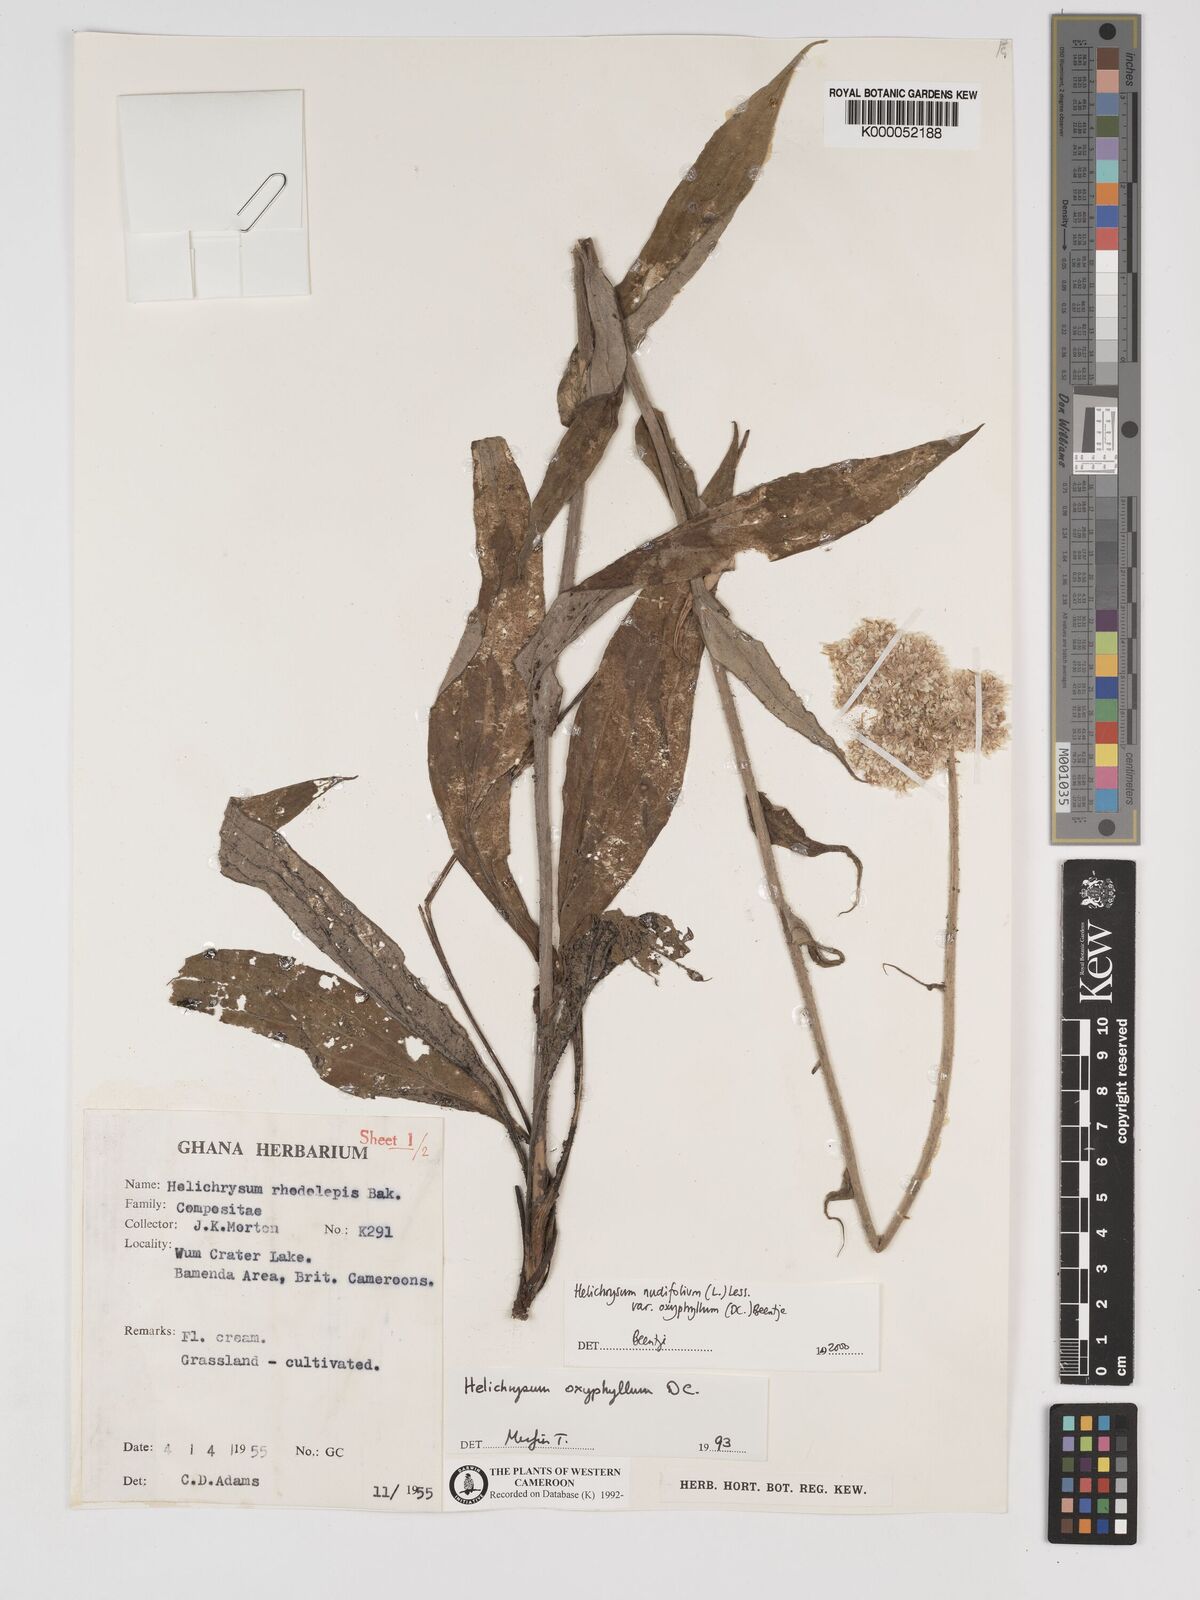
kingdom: Plantae
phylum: Tracheophyta
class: Magnoliopsida
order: Asterales
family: Asteraceae
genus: Helichrysum
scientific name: Helichrysum nudifolium
